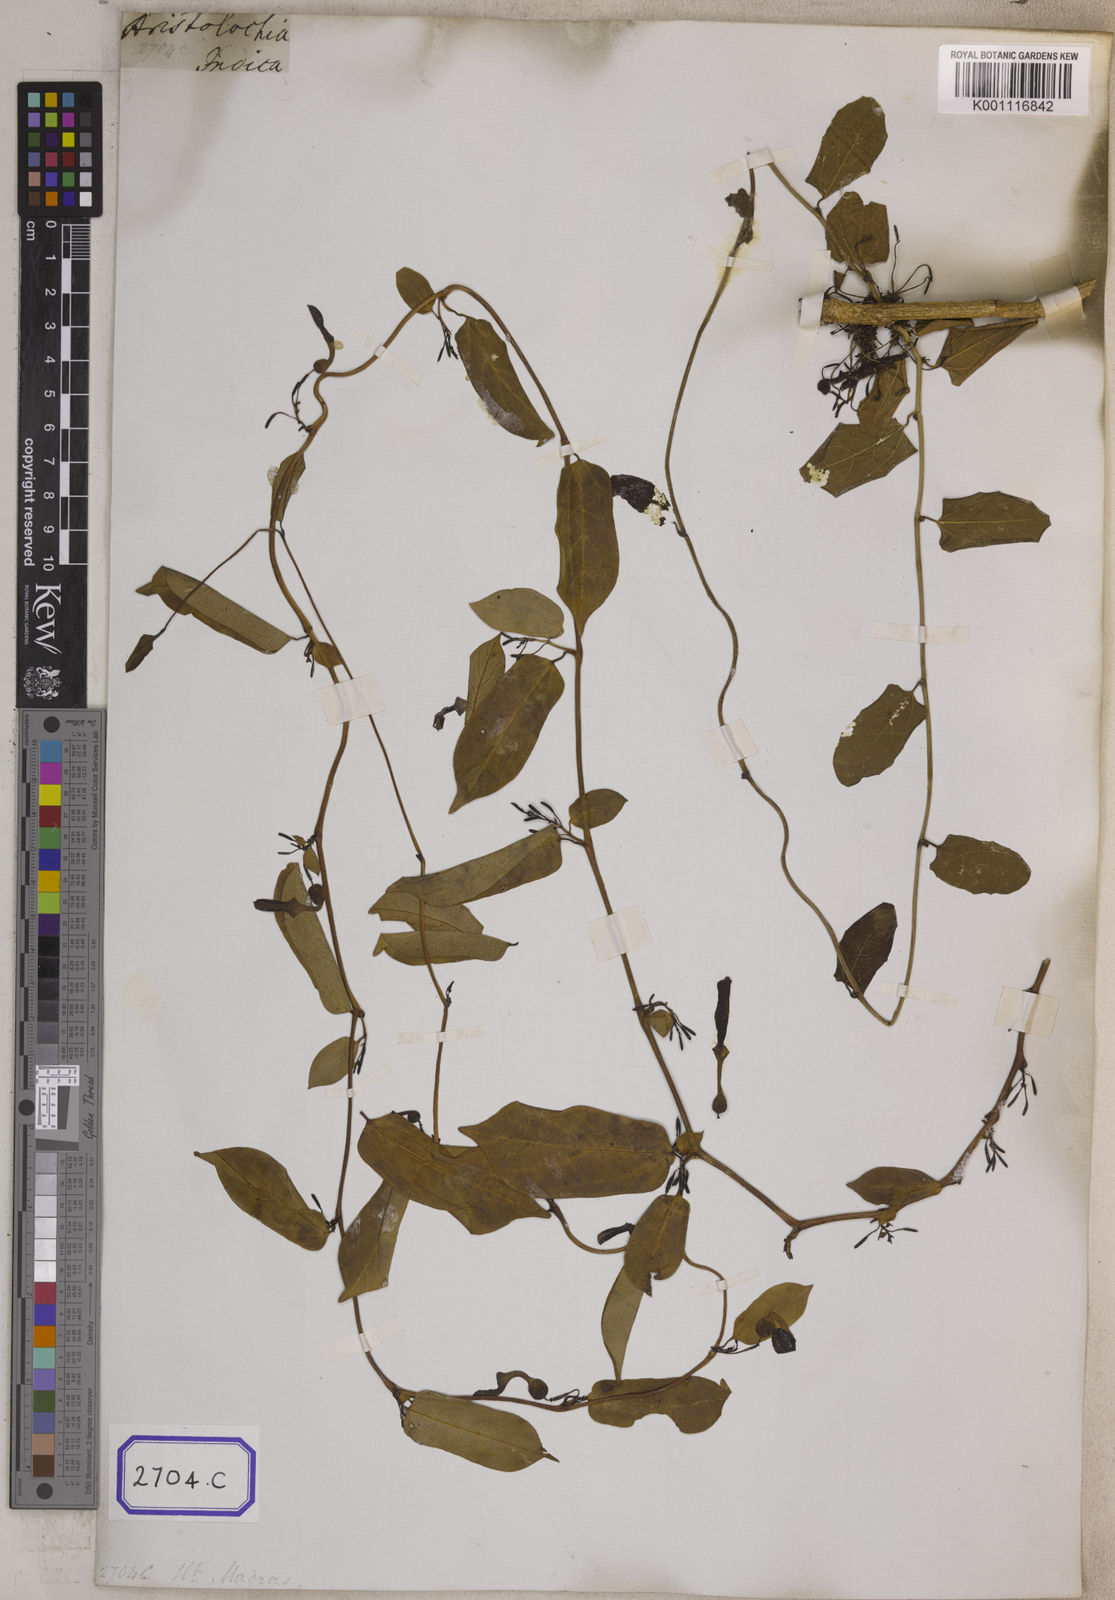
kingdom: Plantae
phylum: Tracheophyta
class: Magnoliopsida
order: Piperales
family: Aristolochiaceae
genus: Aristolochia
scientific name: Aristolochia indica
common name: Indian birthwort
